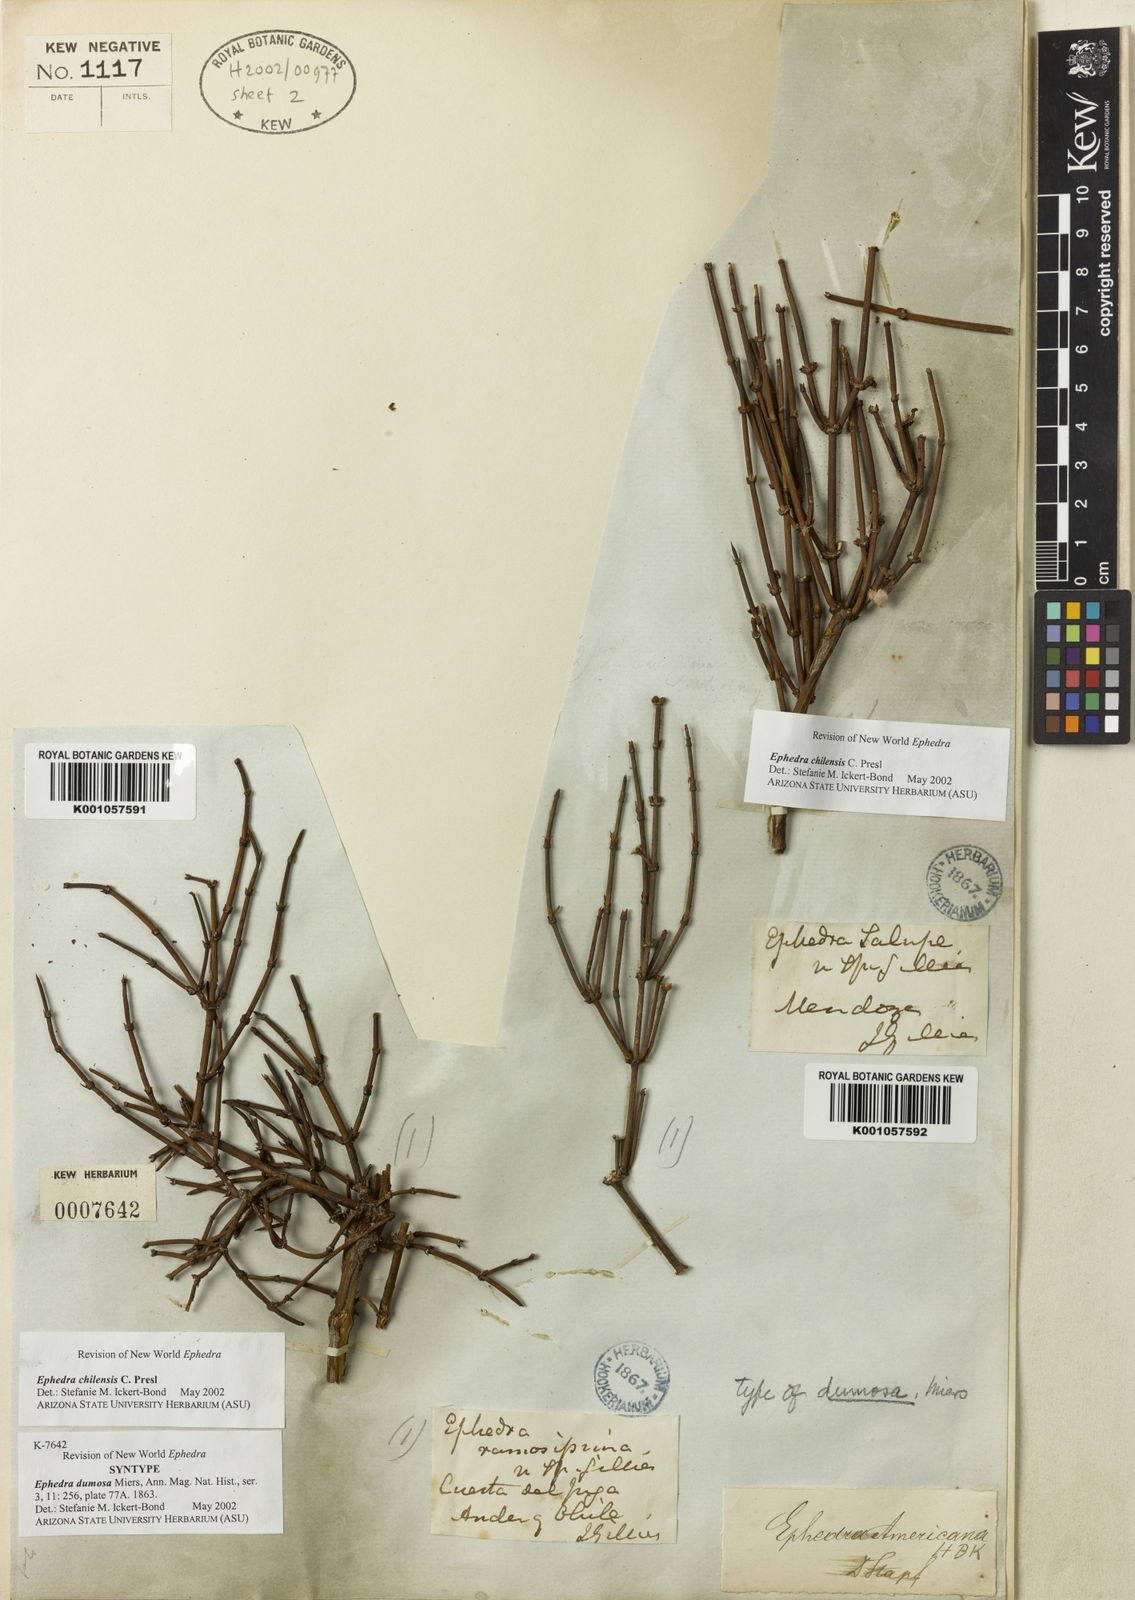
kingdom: Plantae
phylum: Tracheophyta
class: Gnetopsida
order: Ephedrales
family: Ephedraceae
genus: Ephedra
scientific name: Ephedra chilensis
